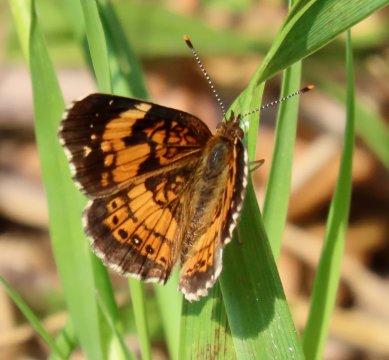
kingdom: Animalia
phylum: Arthropoda
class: Insecta
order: Lepidoptera
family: Nymphalidae
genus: Chlosyne
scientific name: Chlosyne nycteis
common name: Silvery Checkerspot
